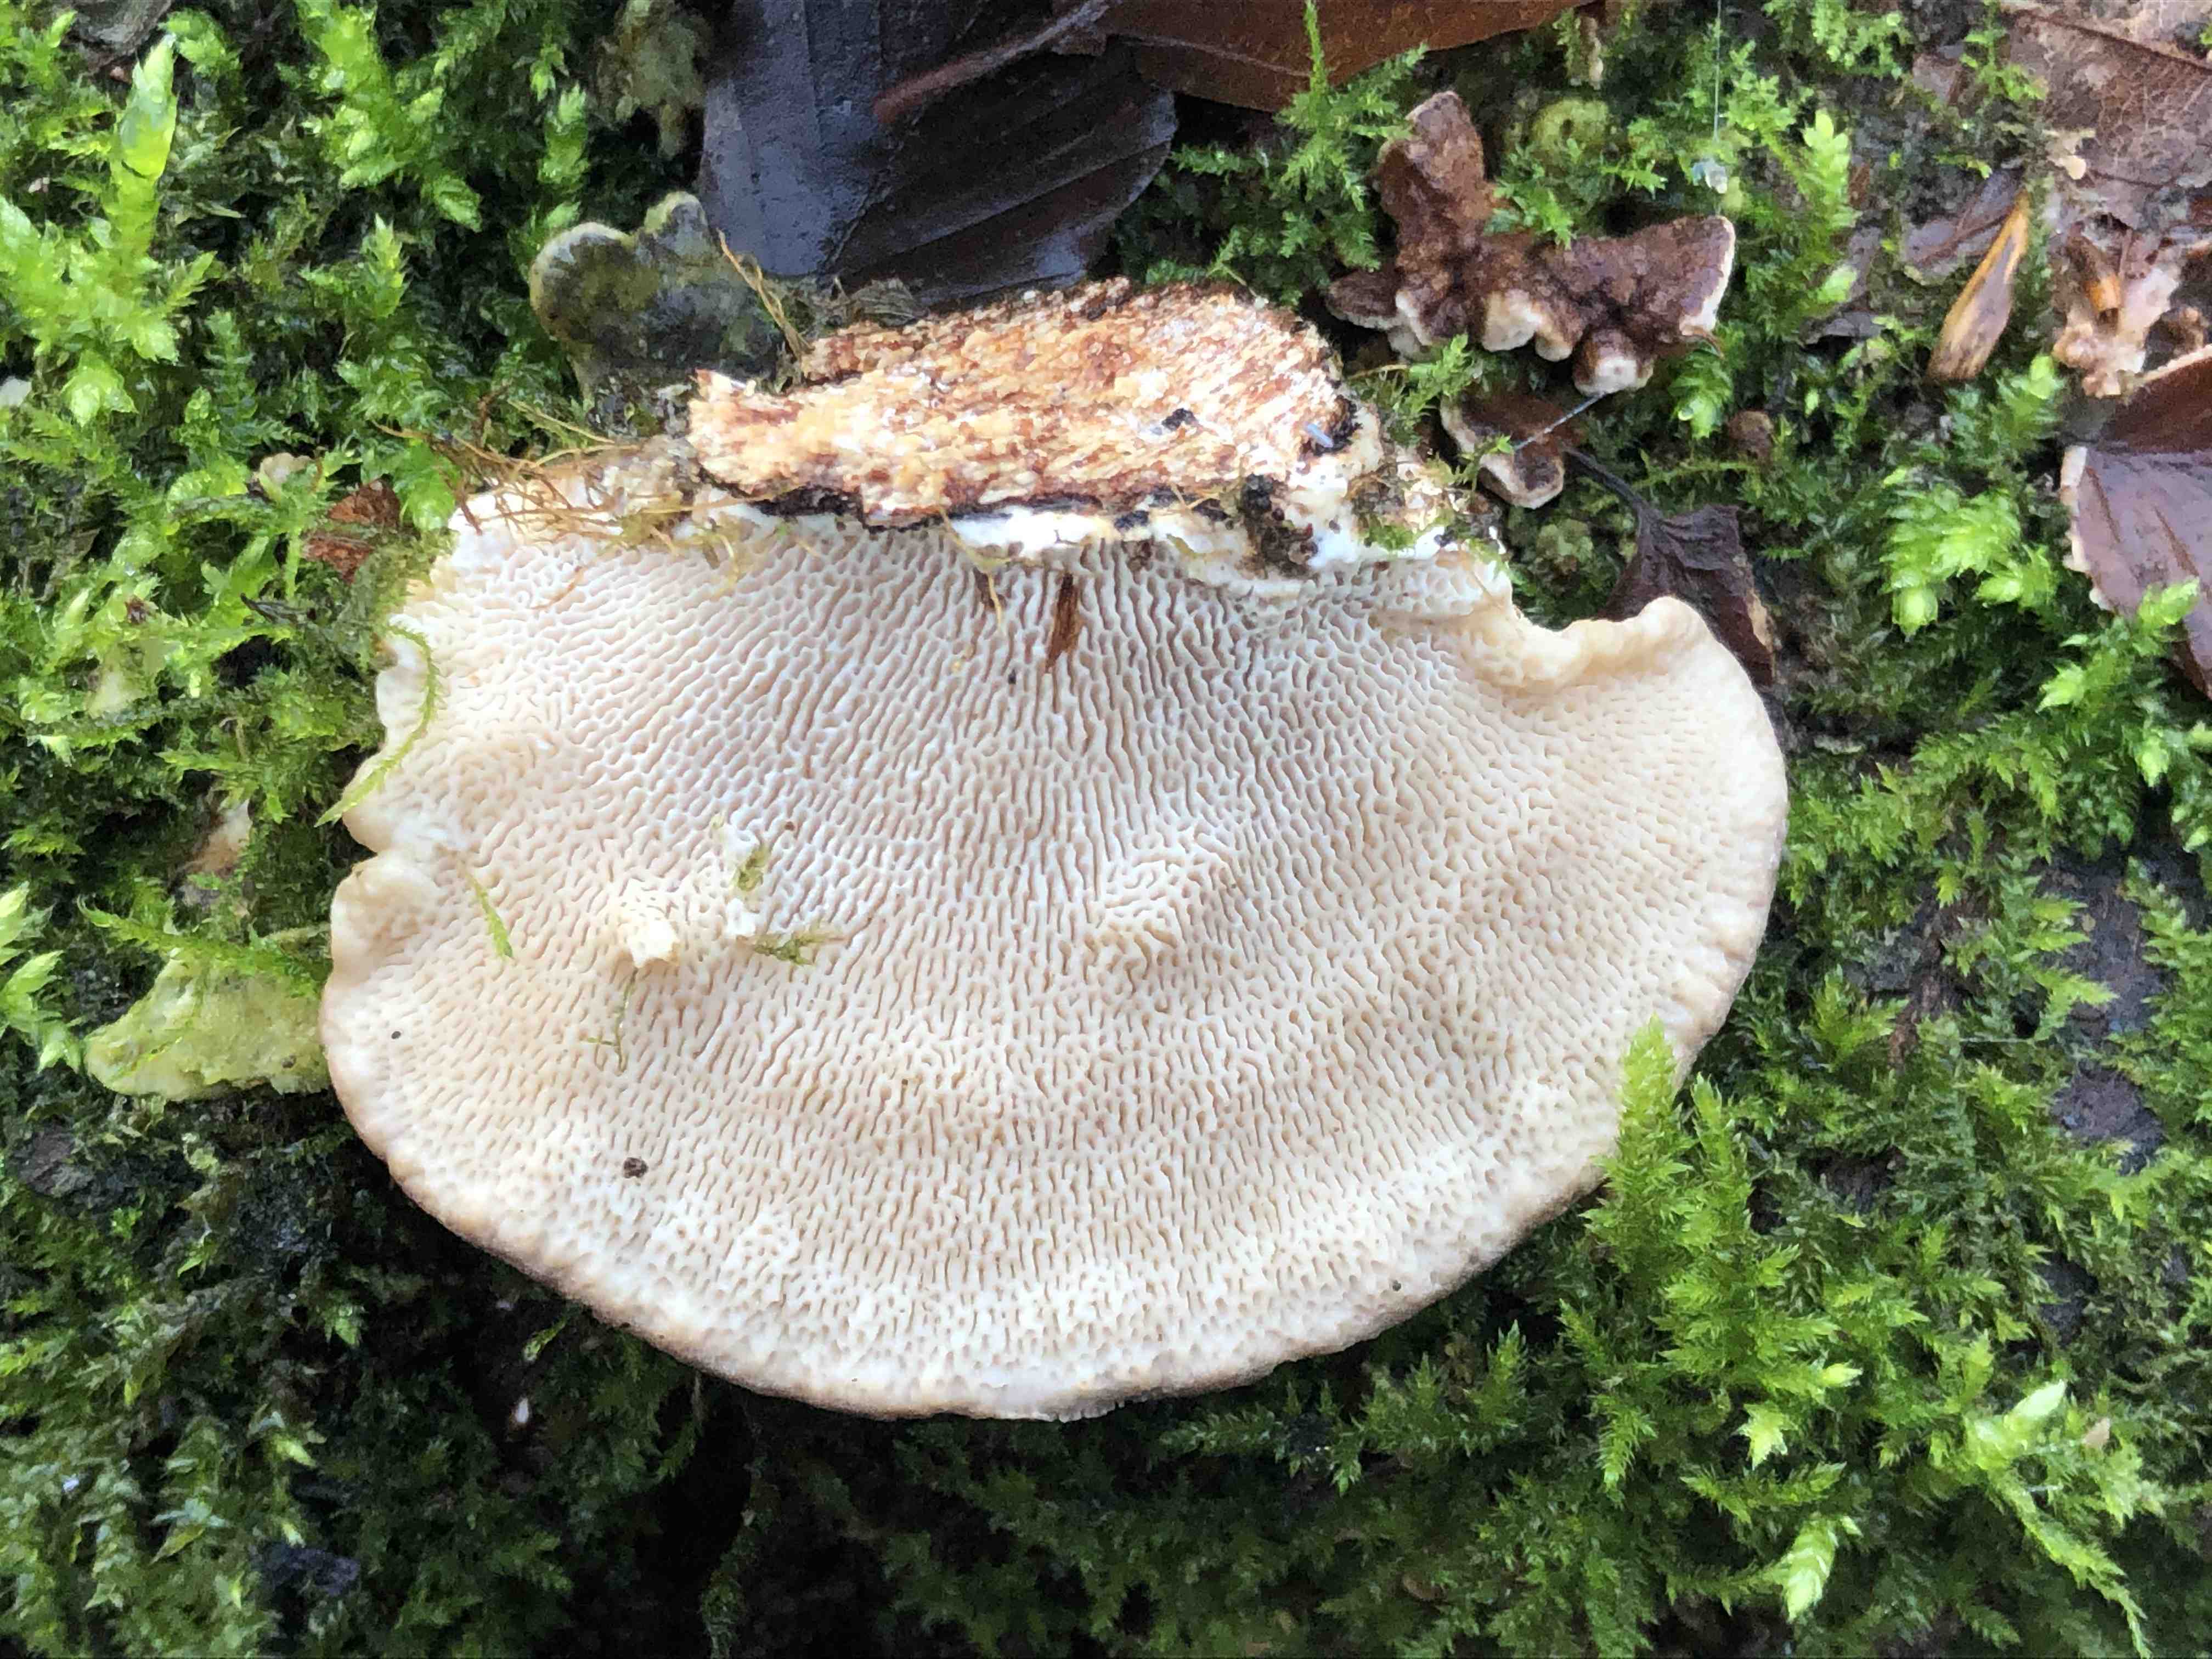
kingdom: Fungi
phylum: Basidiomycota
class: Agaricomycetes
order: Polyporales
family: Polyporaceae
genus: Trametes
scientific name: Trametes gibbosa
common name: puklet læderporesvamp
